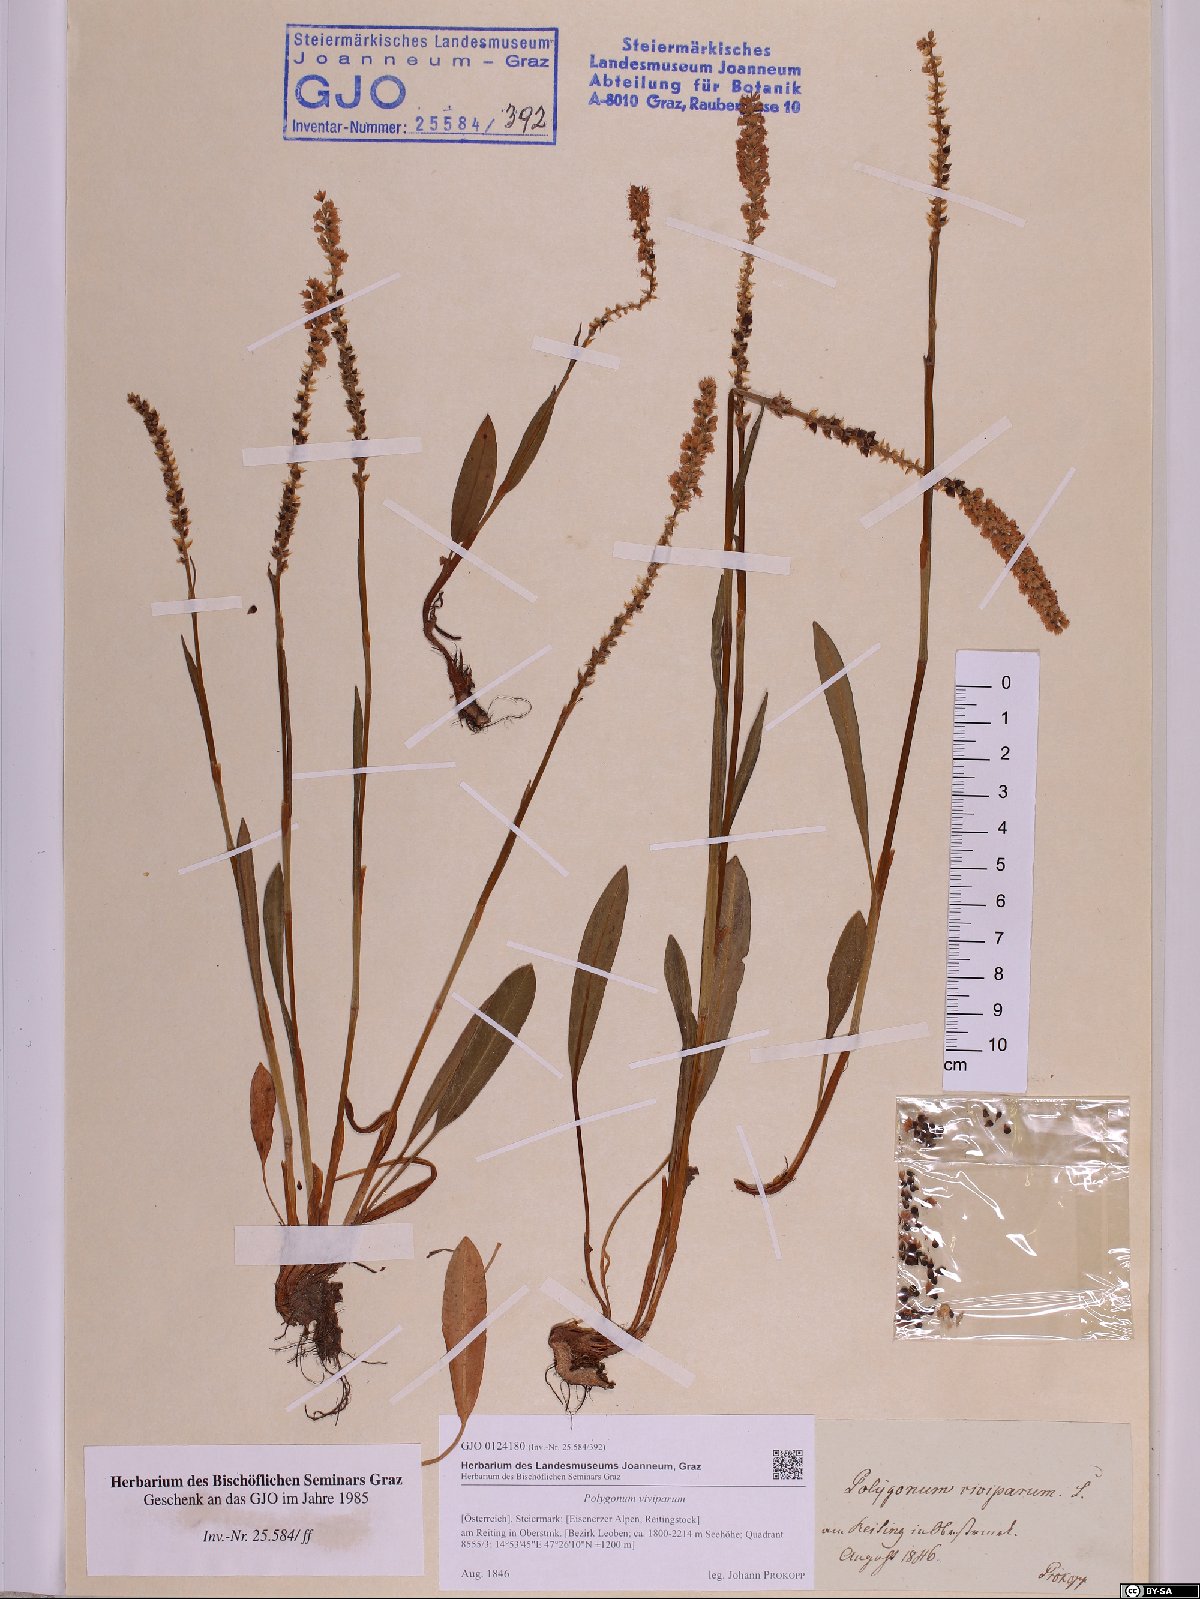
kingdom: Plantae
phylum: Tracheophyta
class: Magnoliopsida
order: Caryophyllales
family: Polygonaceae
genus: Bistorta
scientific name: Bistorta vivipara
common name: Alpine bistort
